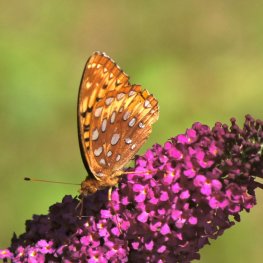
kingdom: Animalia
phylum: Arthropoda
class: Insecta
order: Lepidoptera
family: Nymphalidae
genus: Speyeria
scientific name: Speyeria cybele
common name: Great Spangled Fritillary
